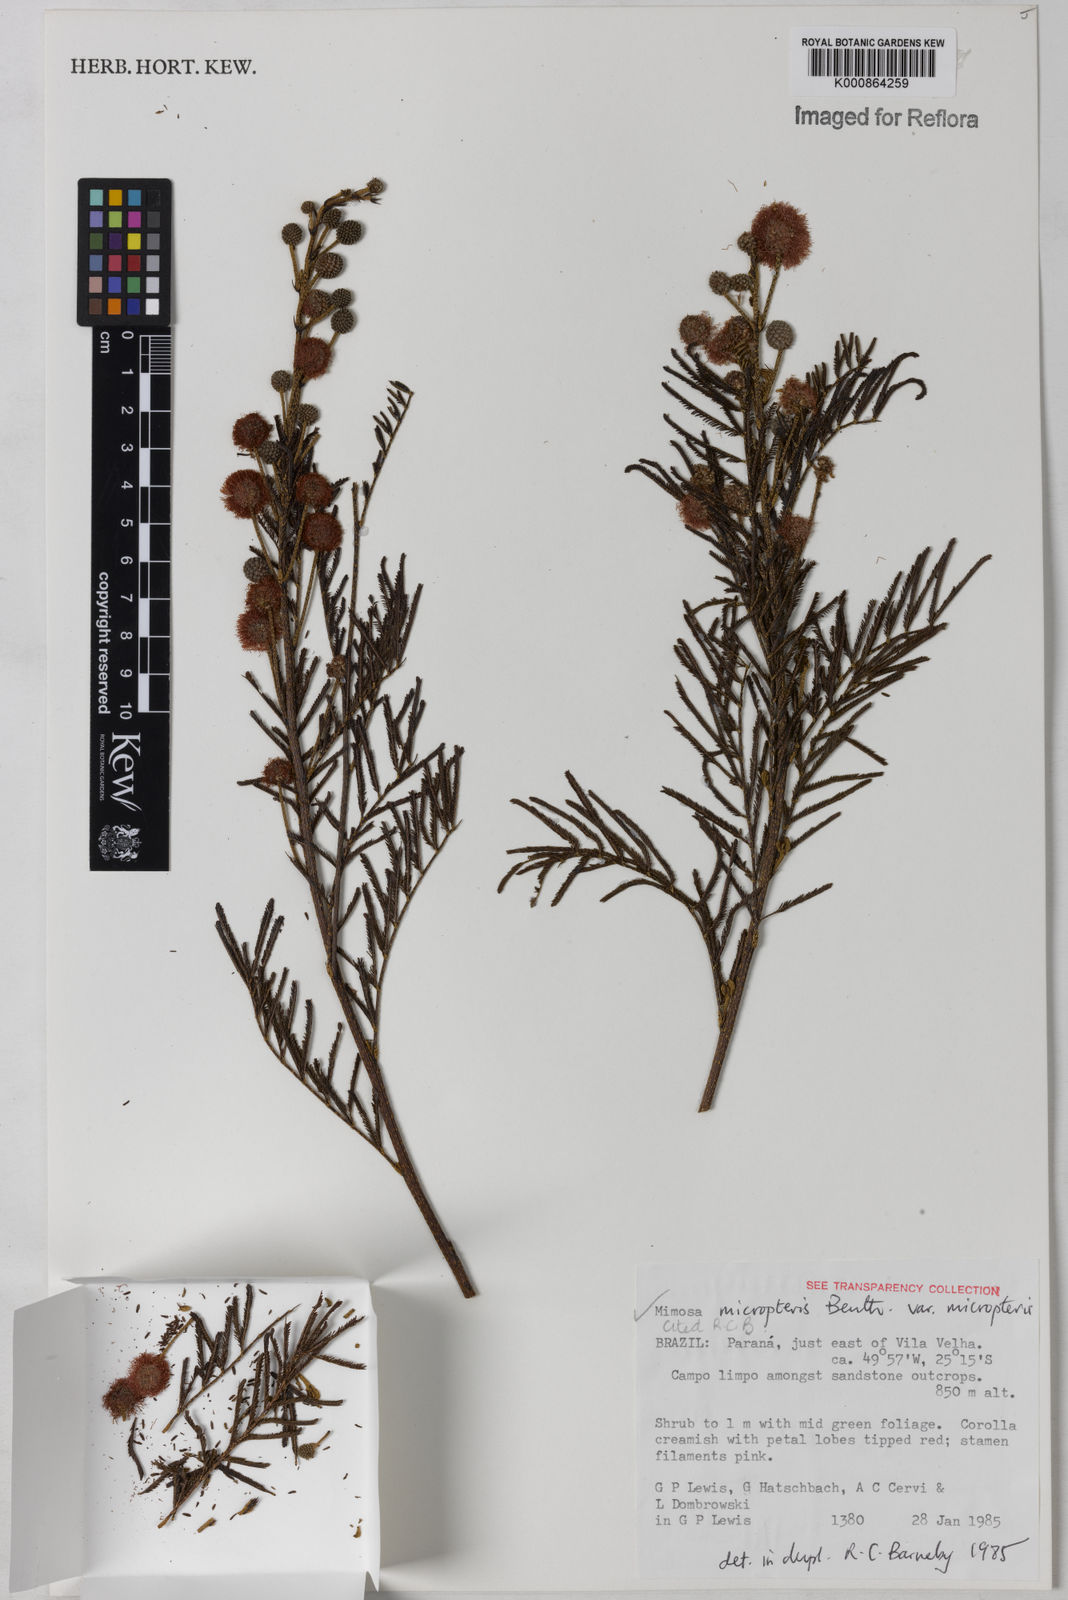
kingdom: Plantae
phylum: Tracheophyta
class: Magnoliopsida
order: Fabales
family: Fabaceae
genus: Mimosa
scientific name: Mimosa micropteris
